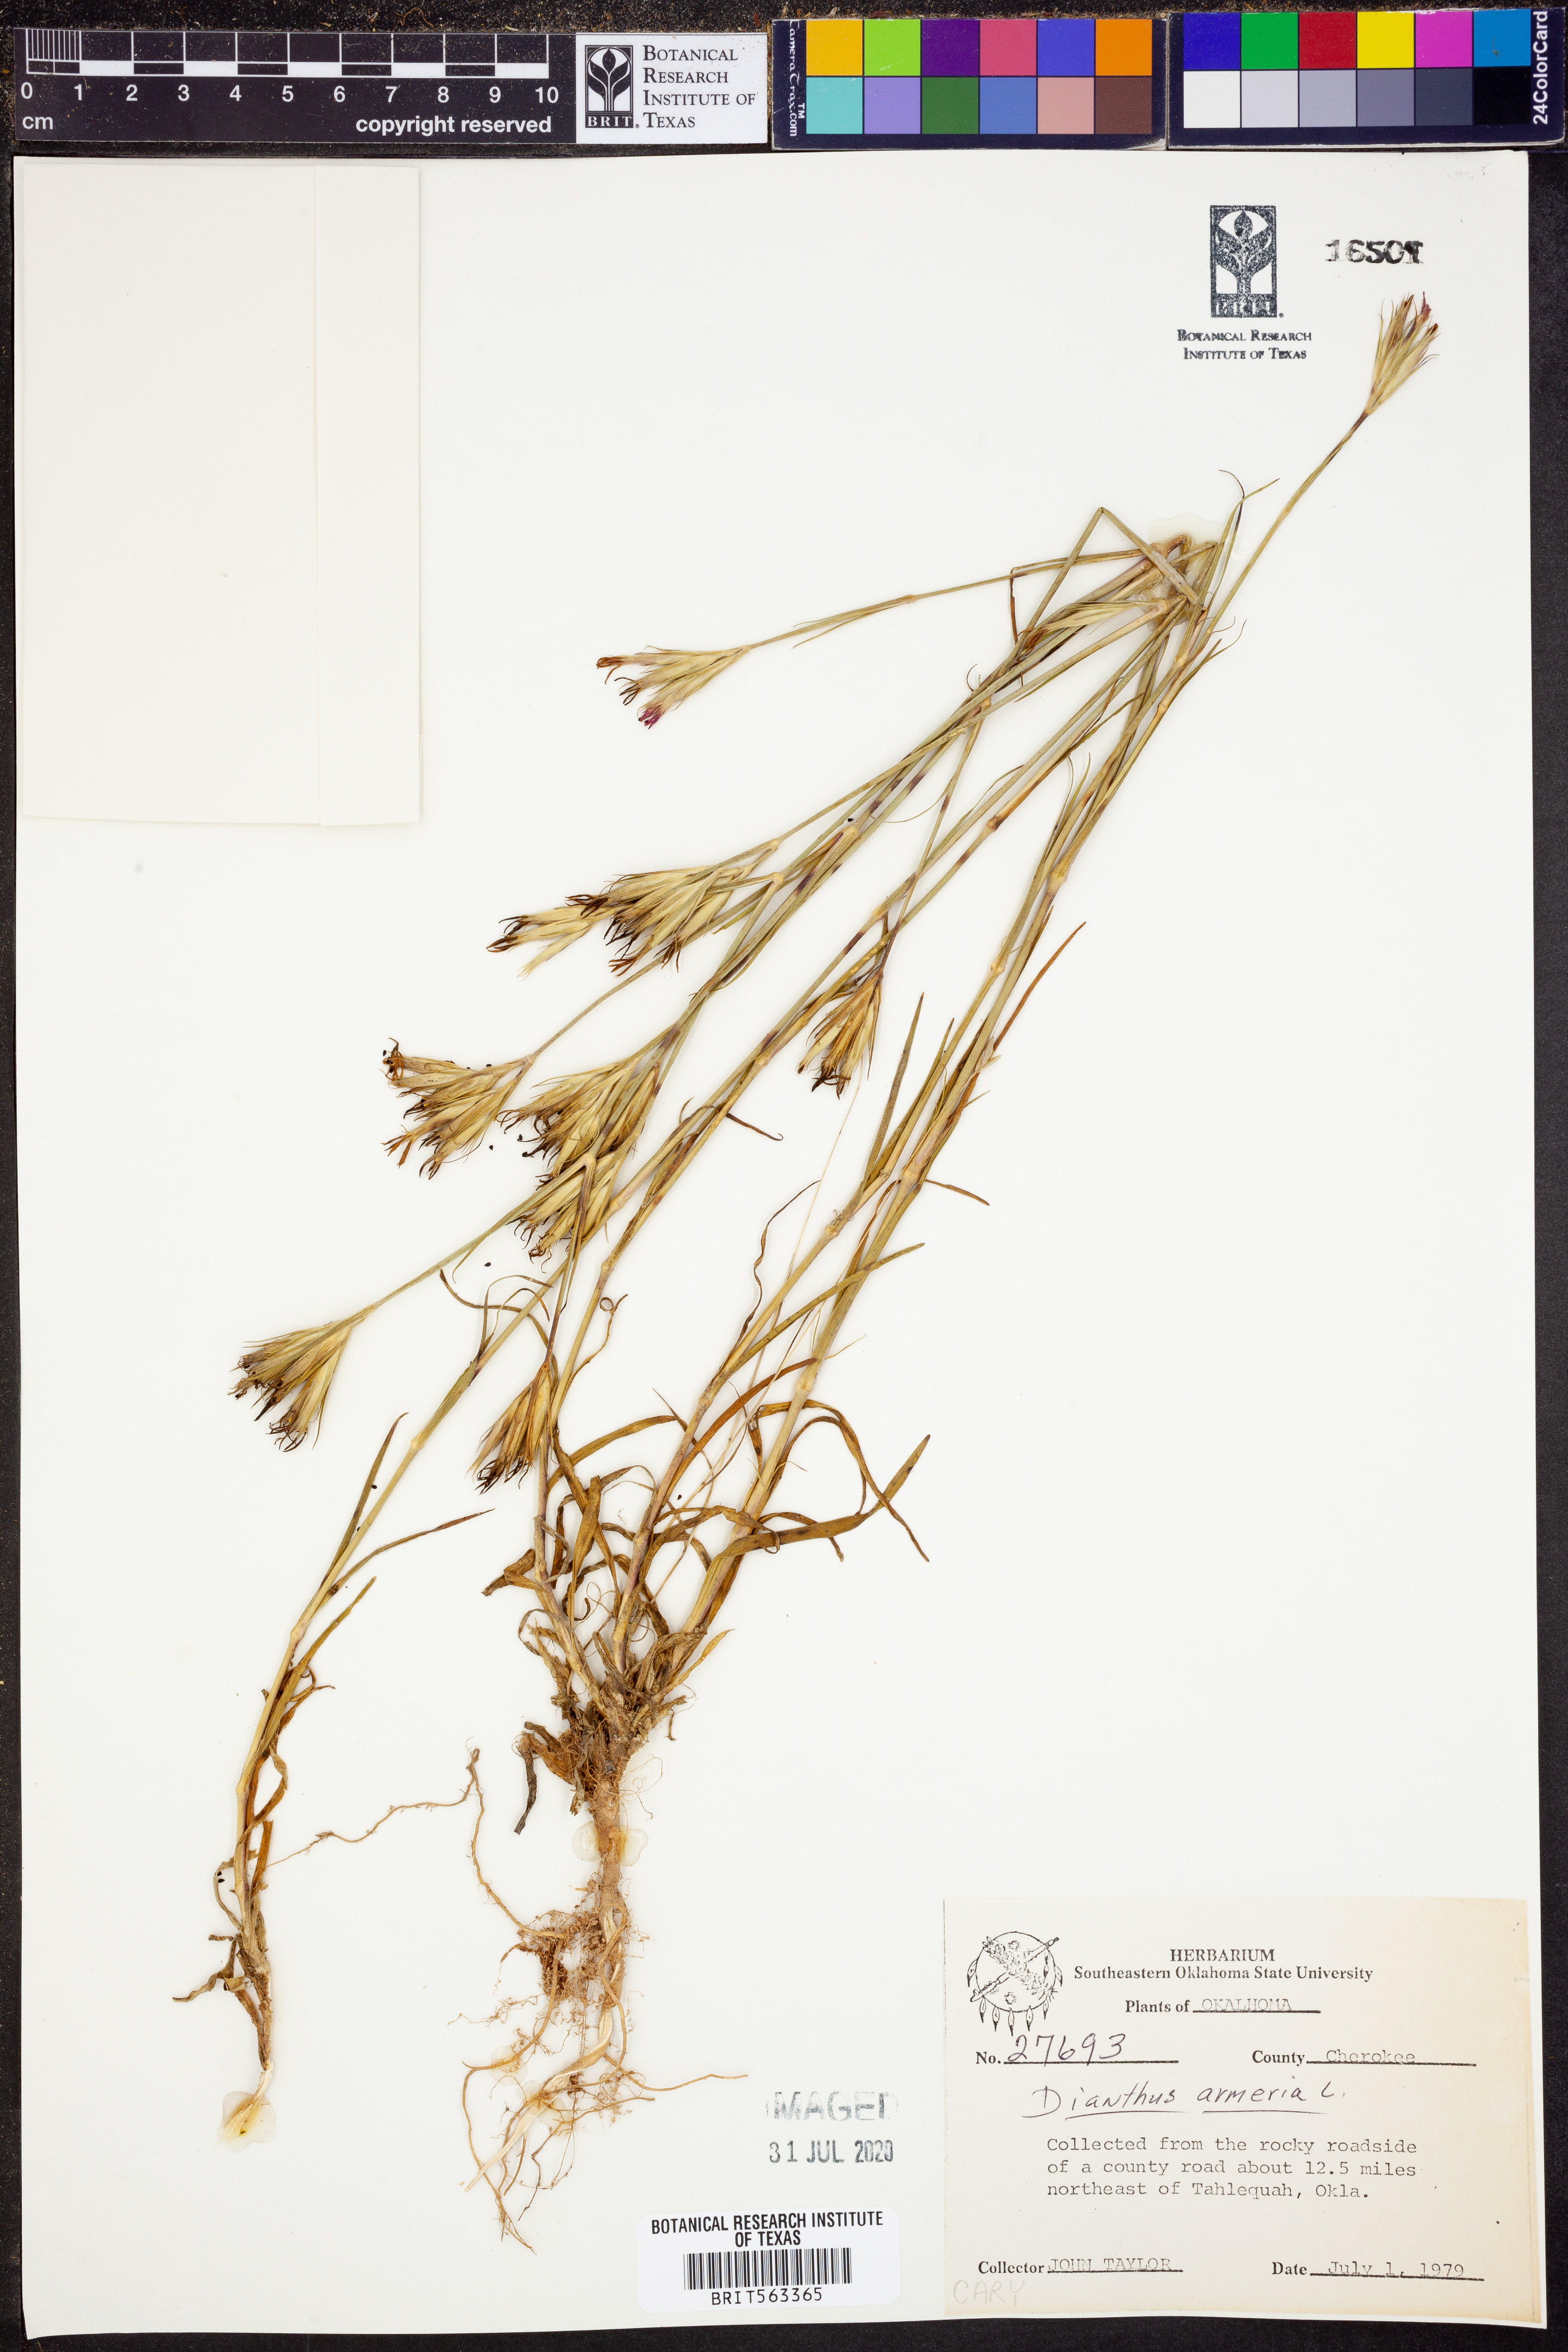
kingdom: Plantae
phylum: Tracheophyta
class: Magnoliopsida
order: Caryophyllales
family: Caryophyllaceae
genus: Dianthus
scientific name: Dianthus armeria
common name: Deptford pink
